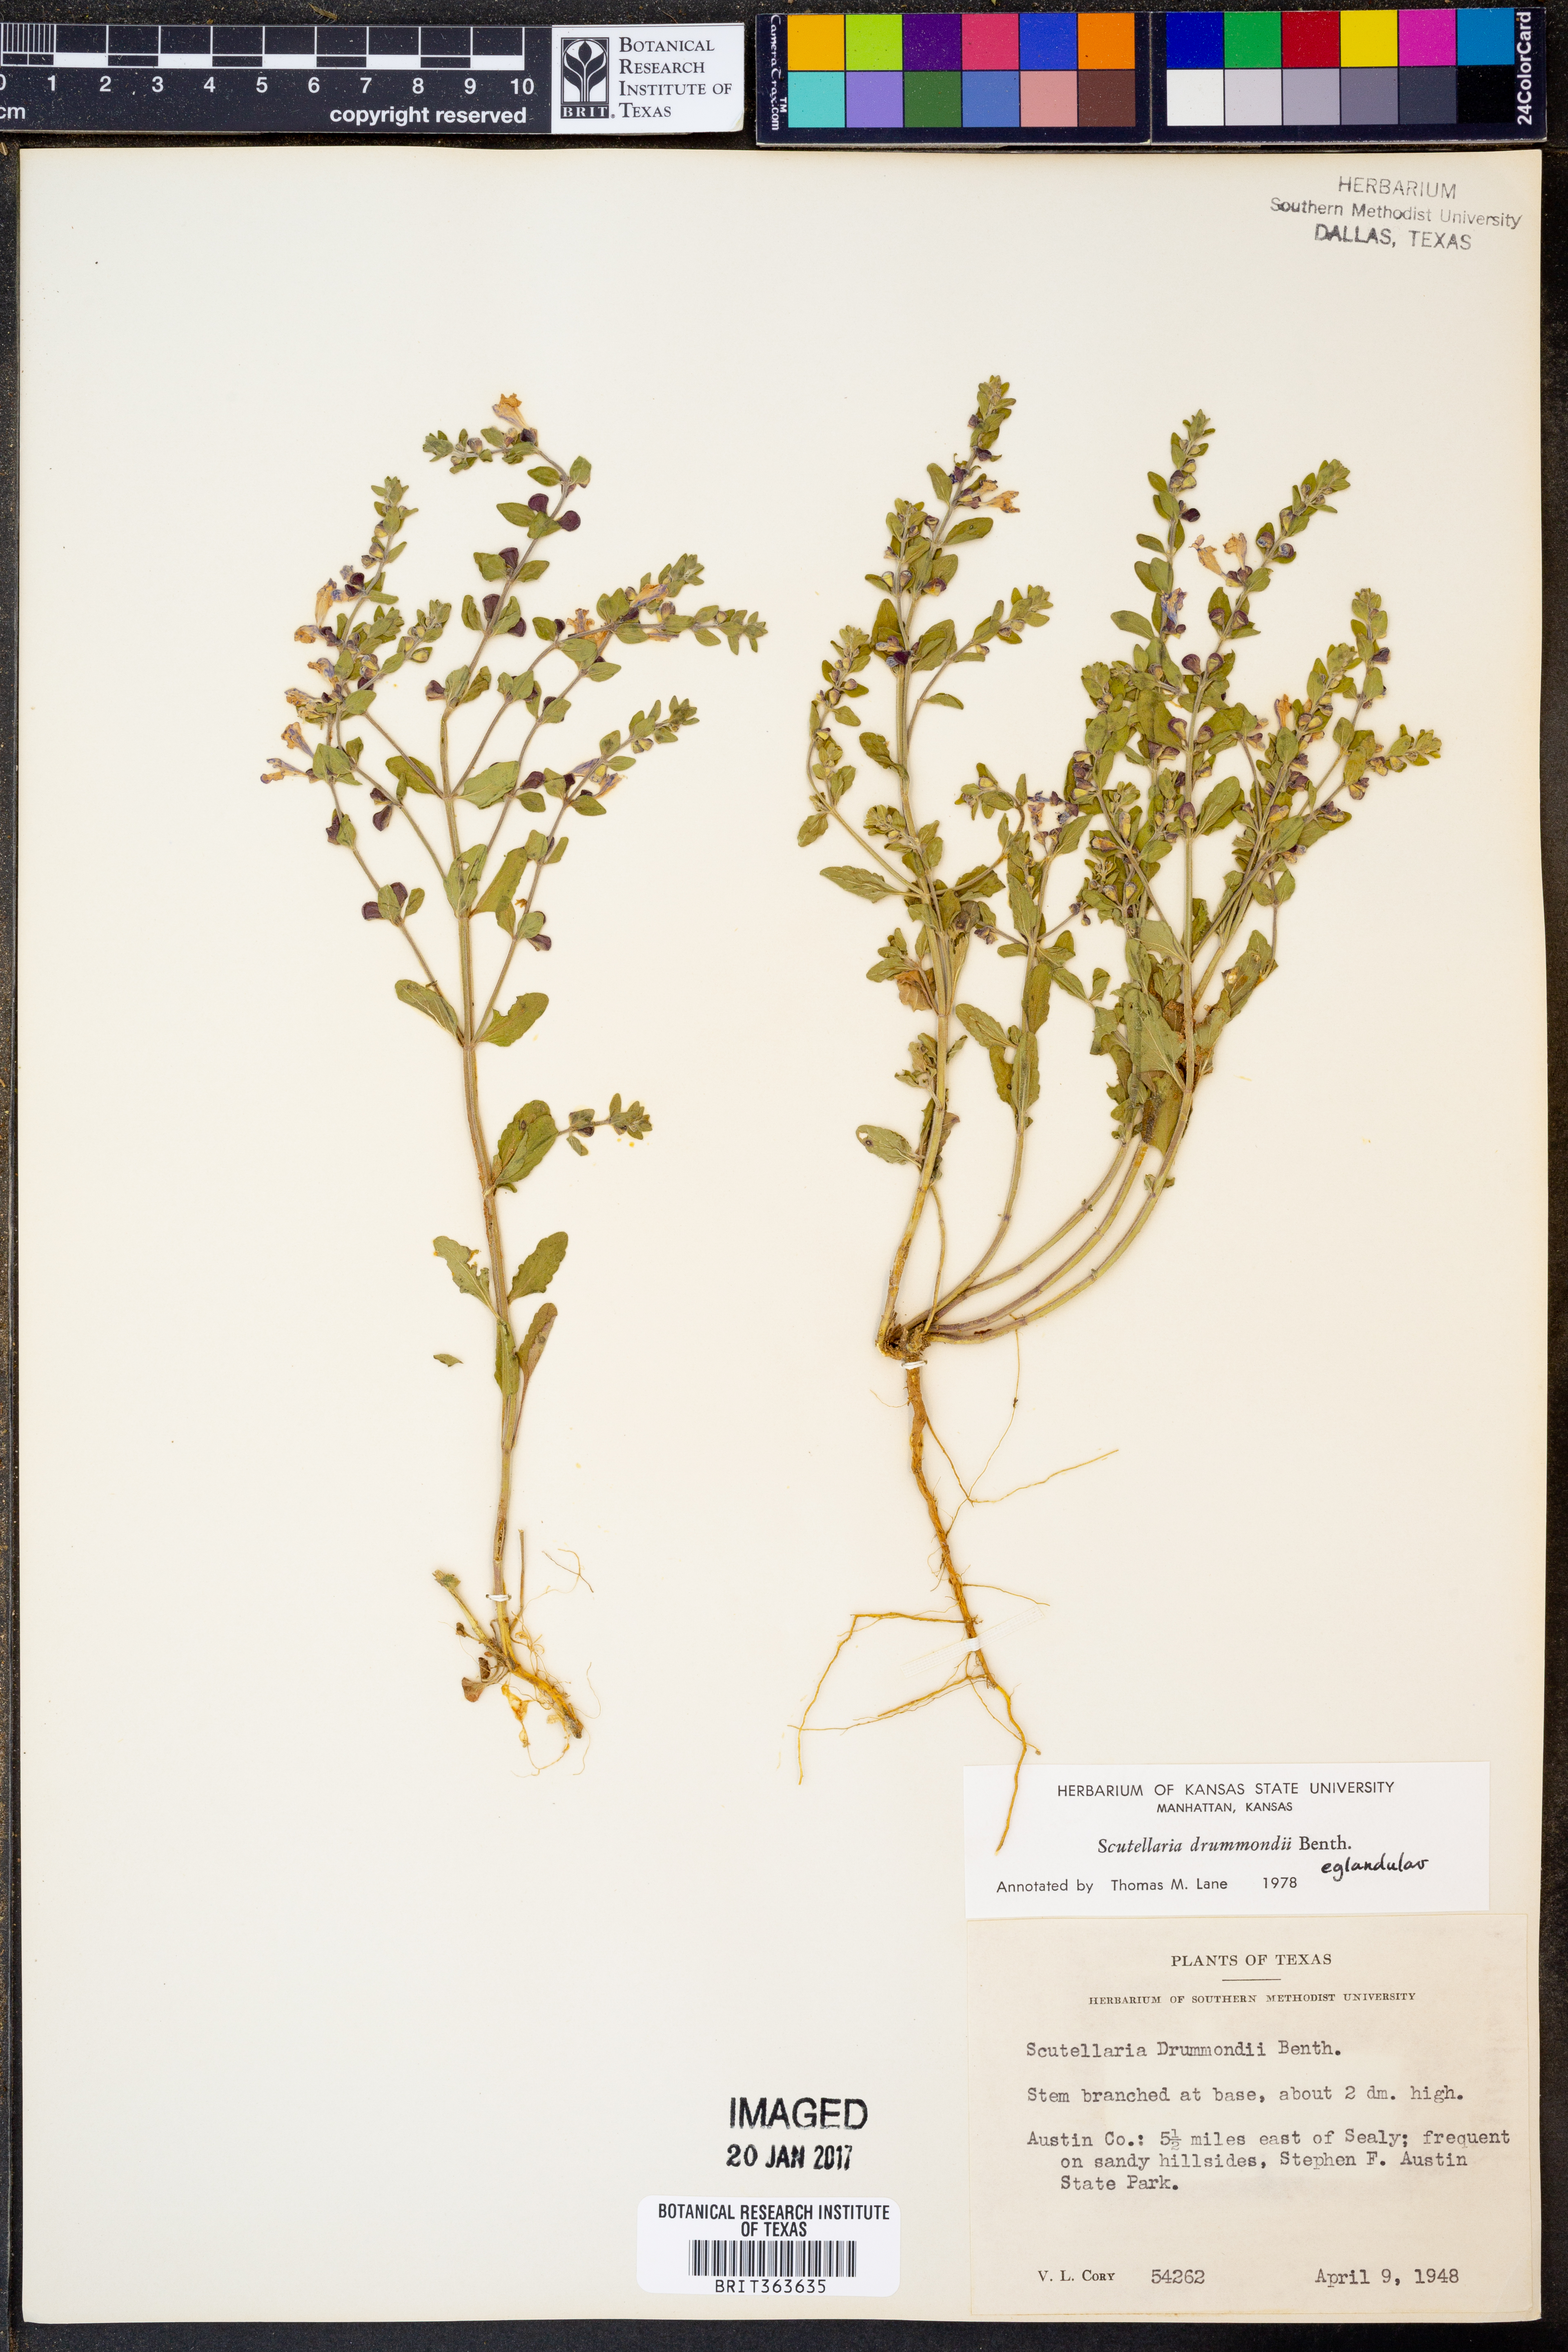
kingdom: Plantae
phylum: Tracheophyta
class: Magnoliopsida
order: Lamiales
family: Lamiaceae
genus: Scutellaria
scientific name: Scutellaria drummondii
